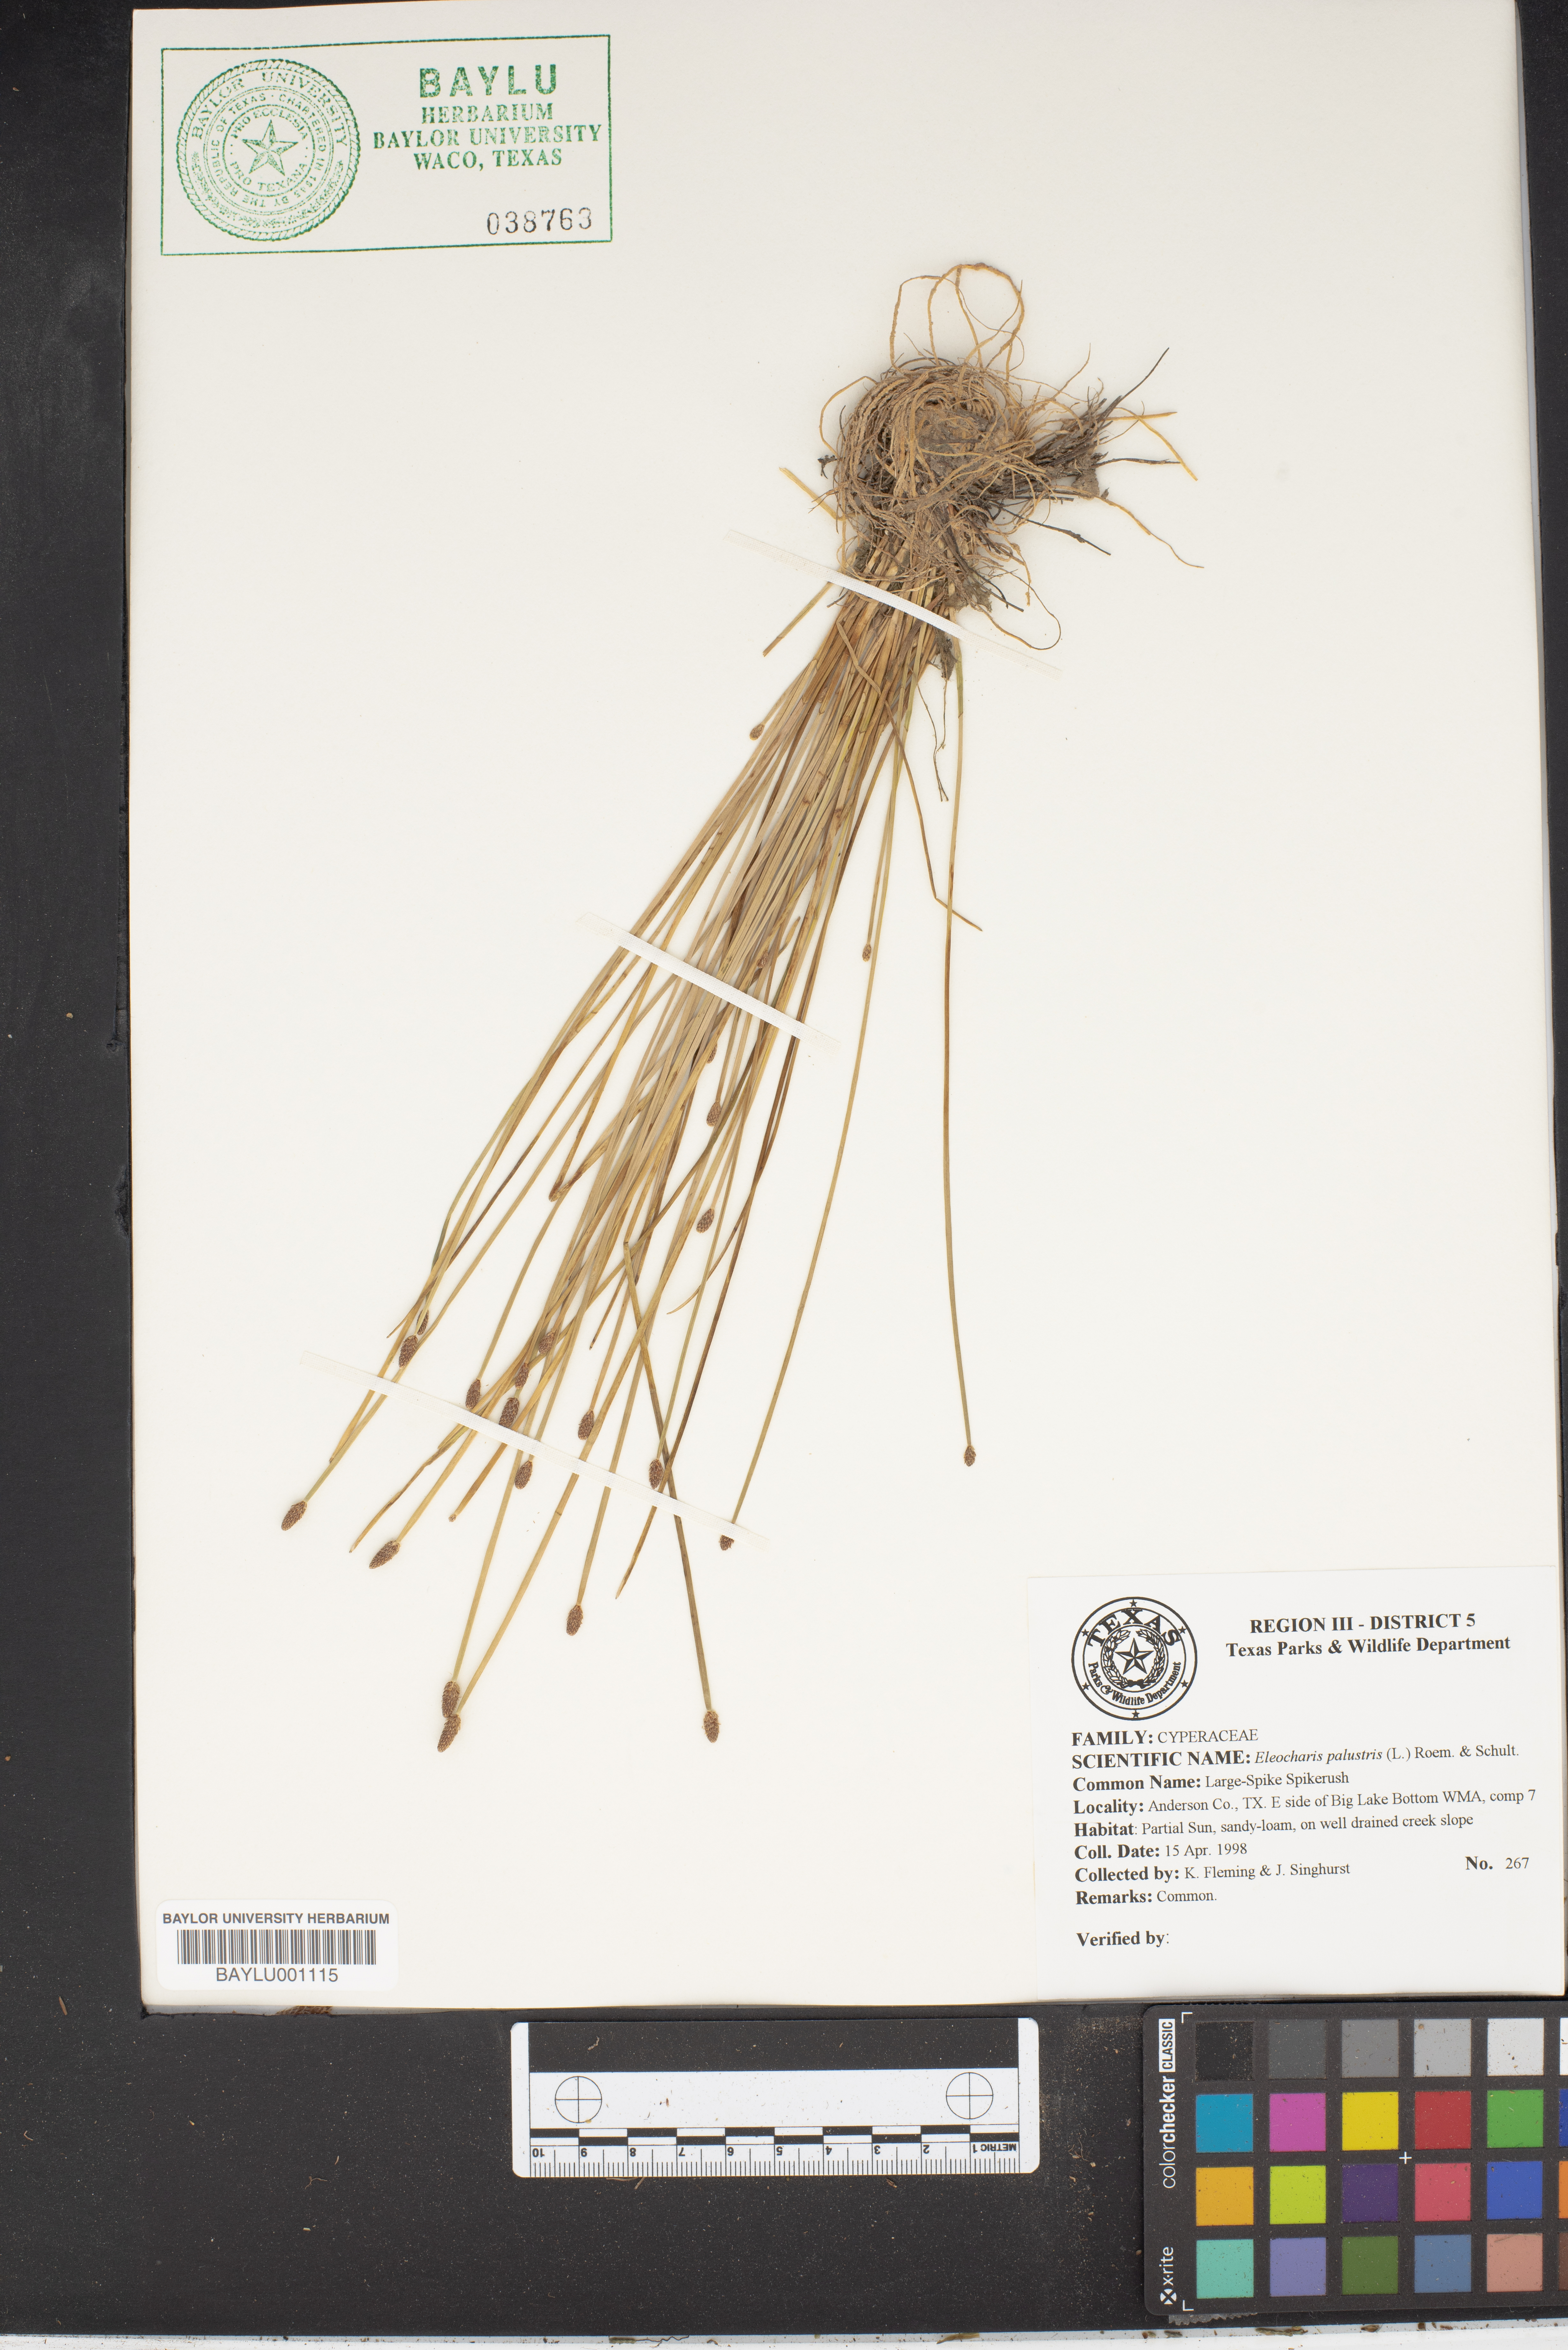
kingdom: Plantae
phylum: Tracheophyta
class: Liliopsida
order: Poales
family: Cyperaceae
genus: Eleocharis
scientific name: Eleocharis palustris
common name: Common spike-rush
